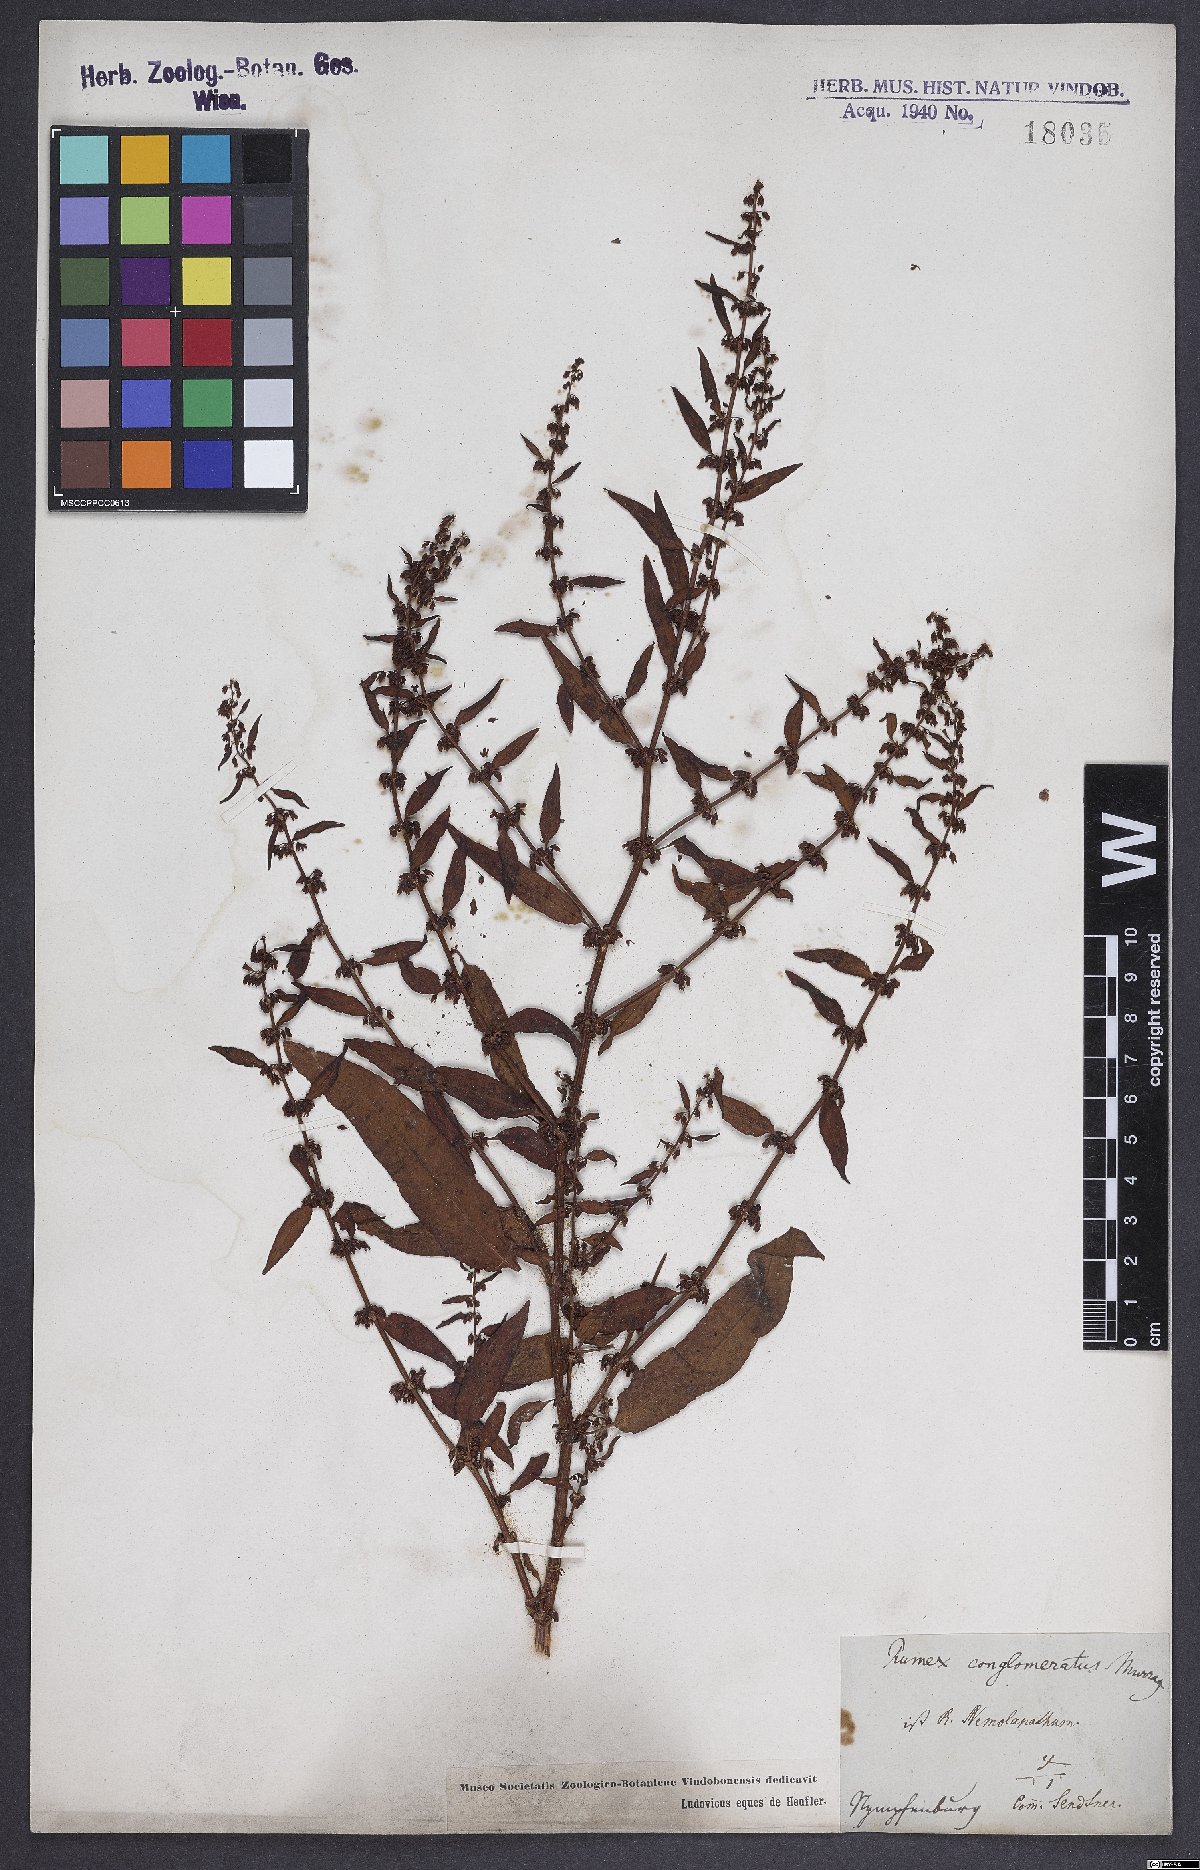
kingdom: Plantae
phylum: Tracheophyta
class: Magnoliopsida
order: Caryophyllales
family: Polygonaceae
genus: Rumex
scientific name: Rumex conglomeratus
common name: Clustered dock
